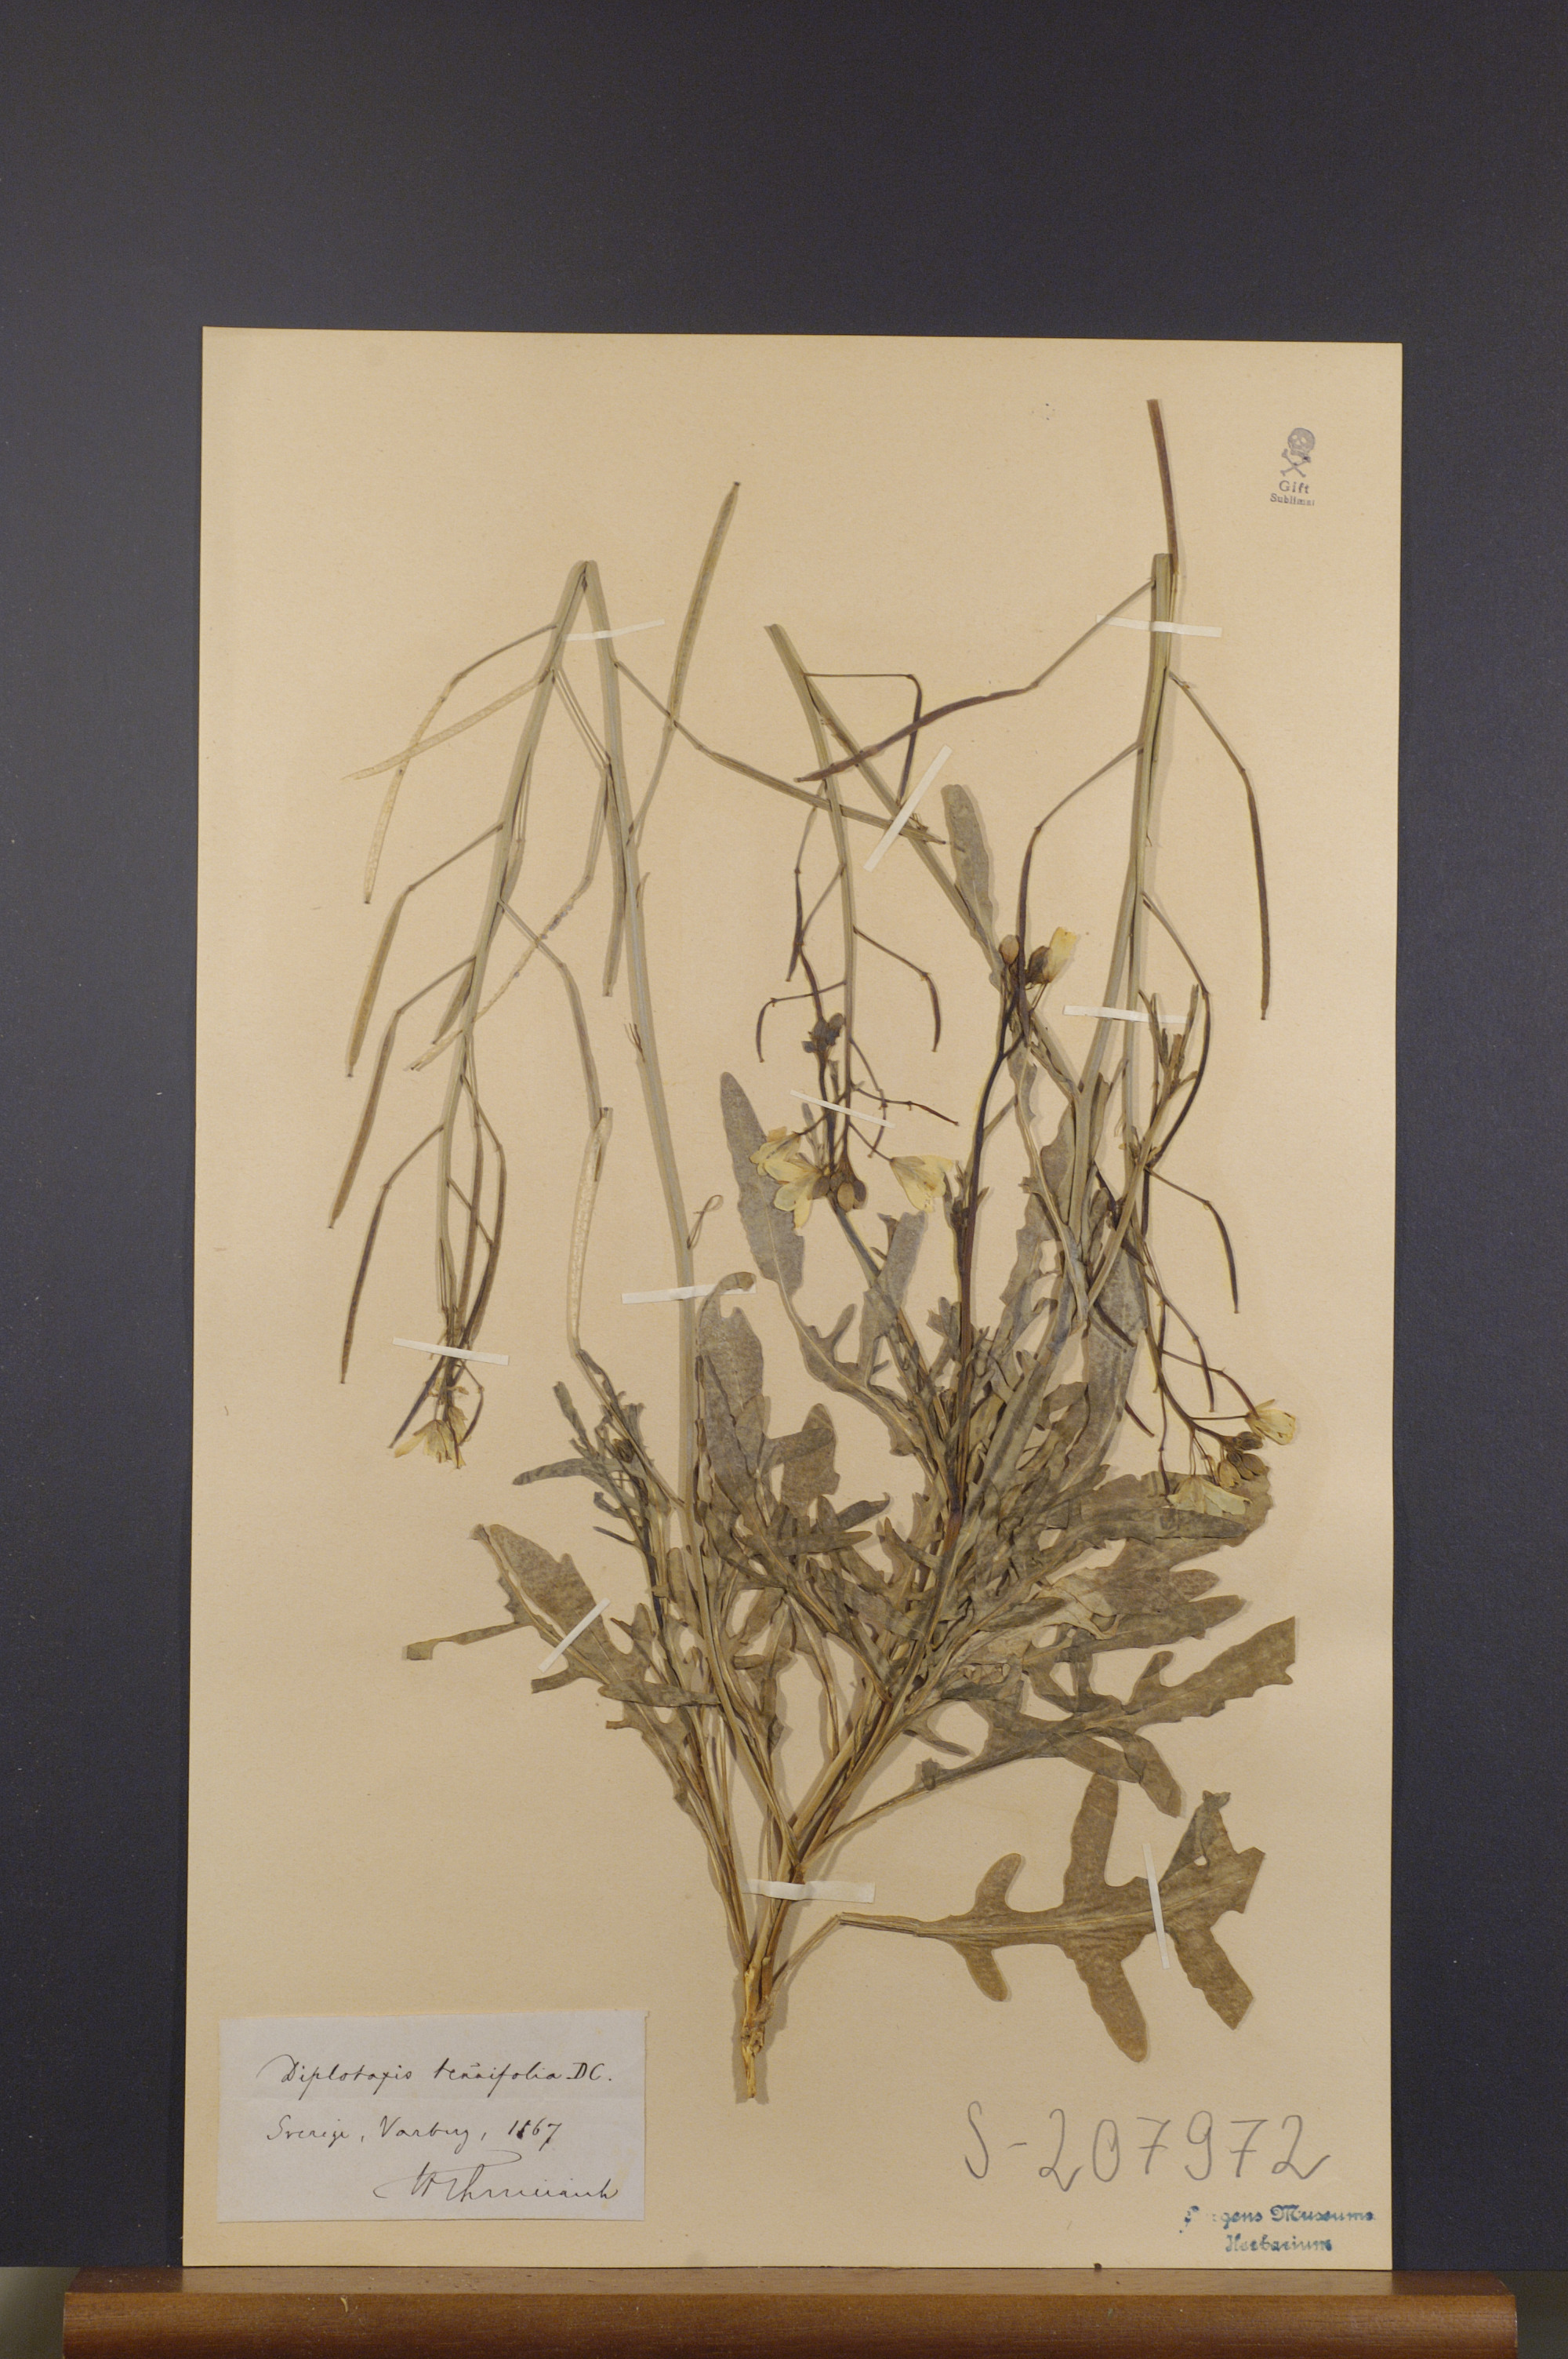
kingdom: Plantae
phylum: Tracheophyta
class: Magnoliopsida
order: Brassicales
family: Brassicaceae
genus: Diplotaxis
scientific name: Diplotaxis tenuifolia
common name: Perennial wall-rocket
